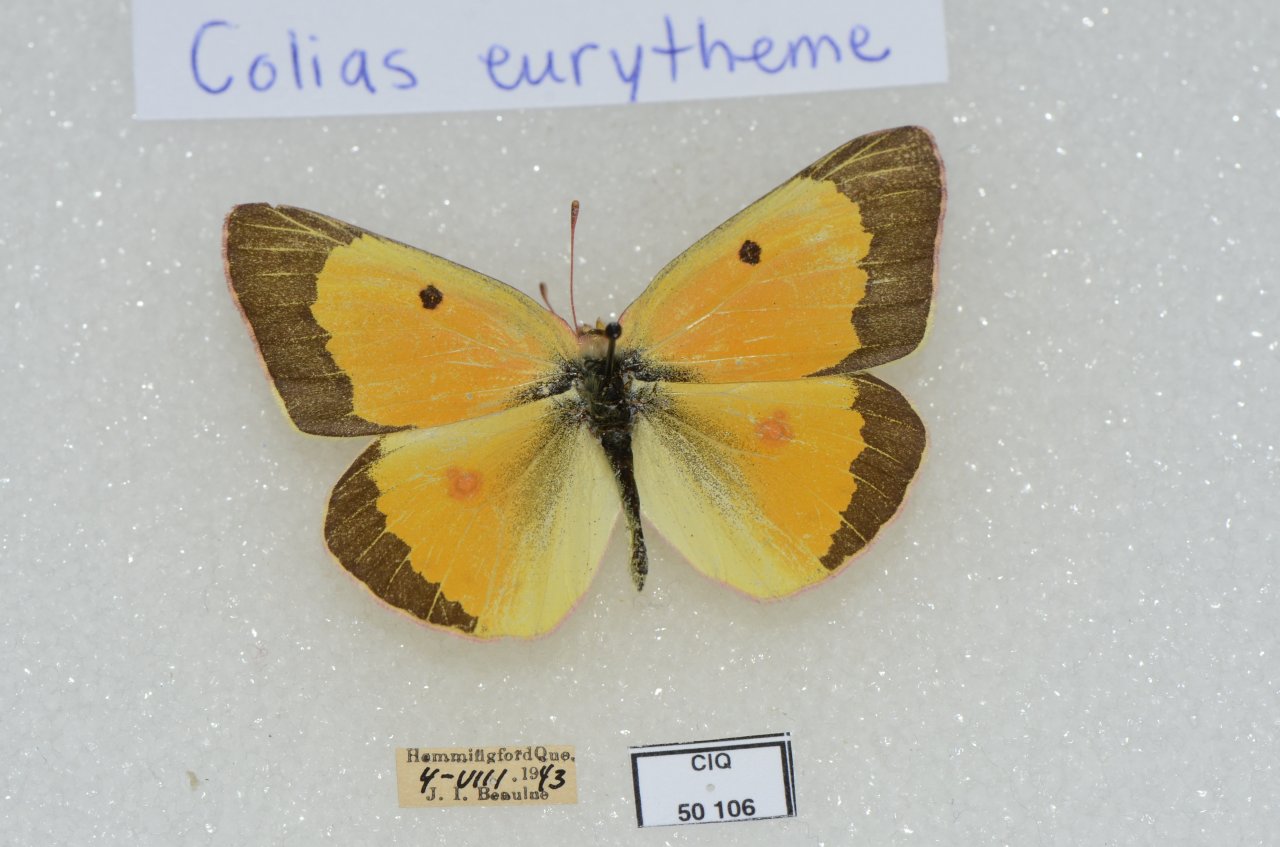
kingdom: Animalia
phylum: Arthropoda
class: Insecta
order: Lepidoptera
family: Pieridae
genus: Colias
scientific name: Colias eurytheme
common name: Orange Sulphur
